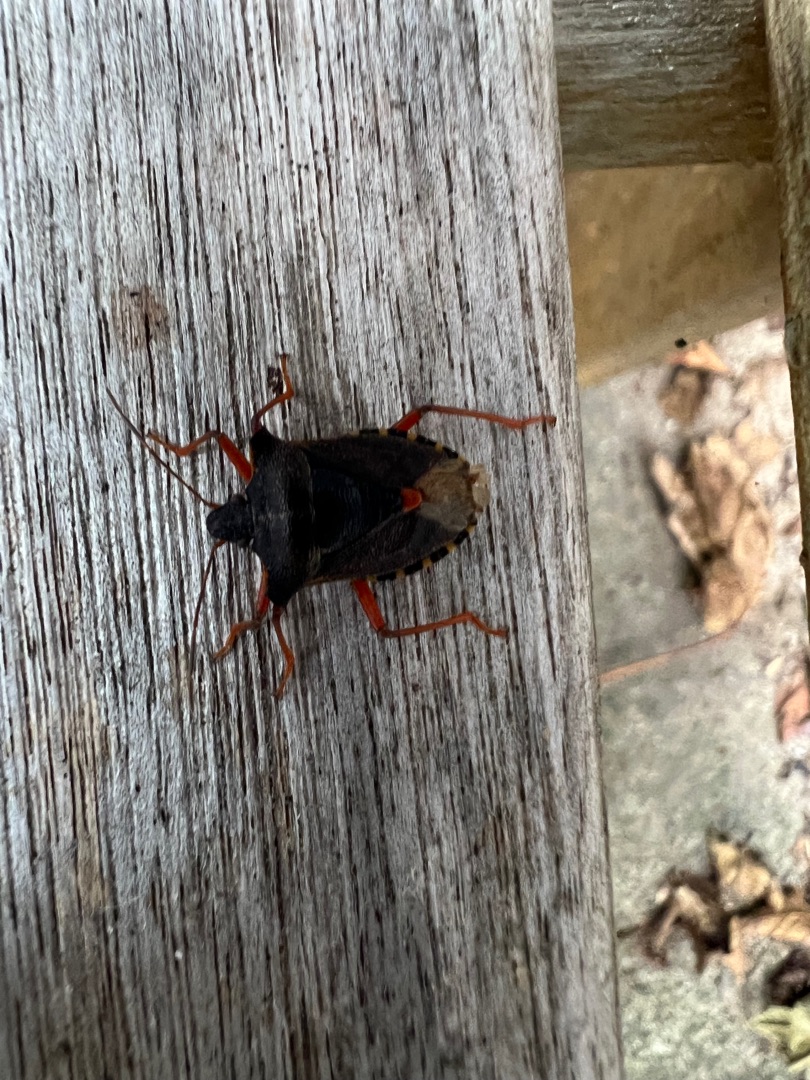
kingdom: Animalia
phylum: Arthropoda
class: Insecta
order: Hemiptera
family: Pentatomidae
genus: Pentatoma
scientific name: Pentatoma rufipes
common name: Rødbenet bredtæge
